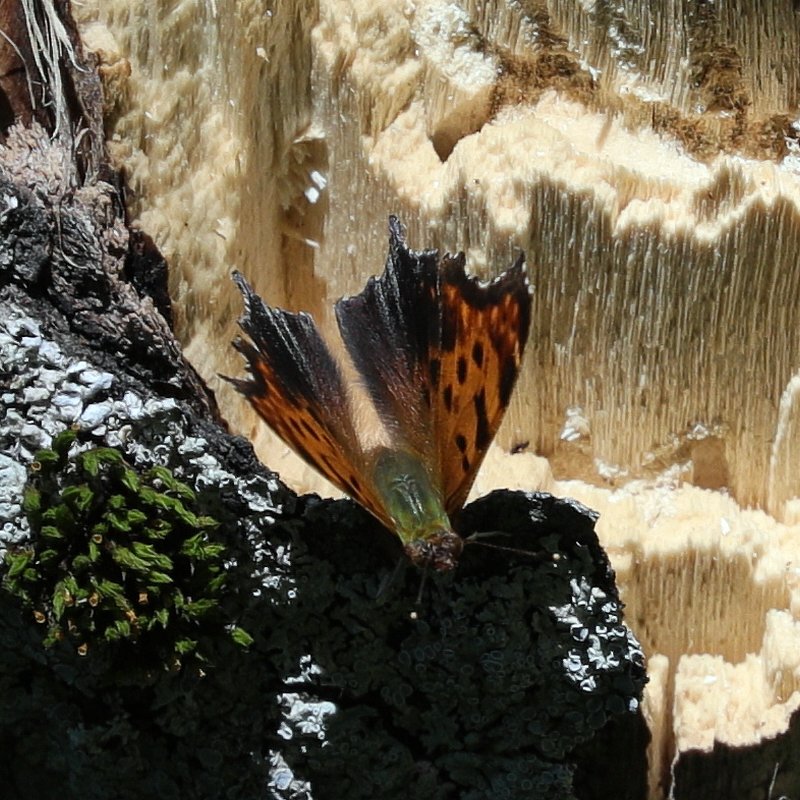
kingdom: Animalia
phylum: Arthropoda
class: Insecta
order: Lepidoptera
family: Nymphalidae
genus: Polygonia
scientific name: Polygonia comma
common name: Eastern Comma
